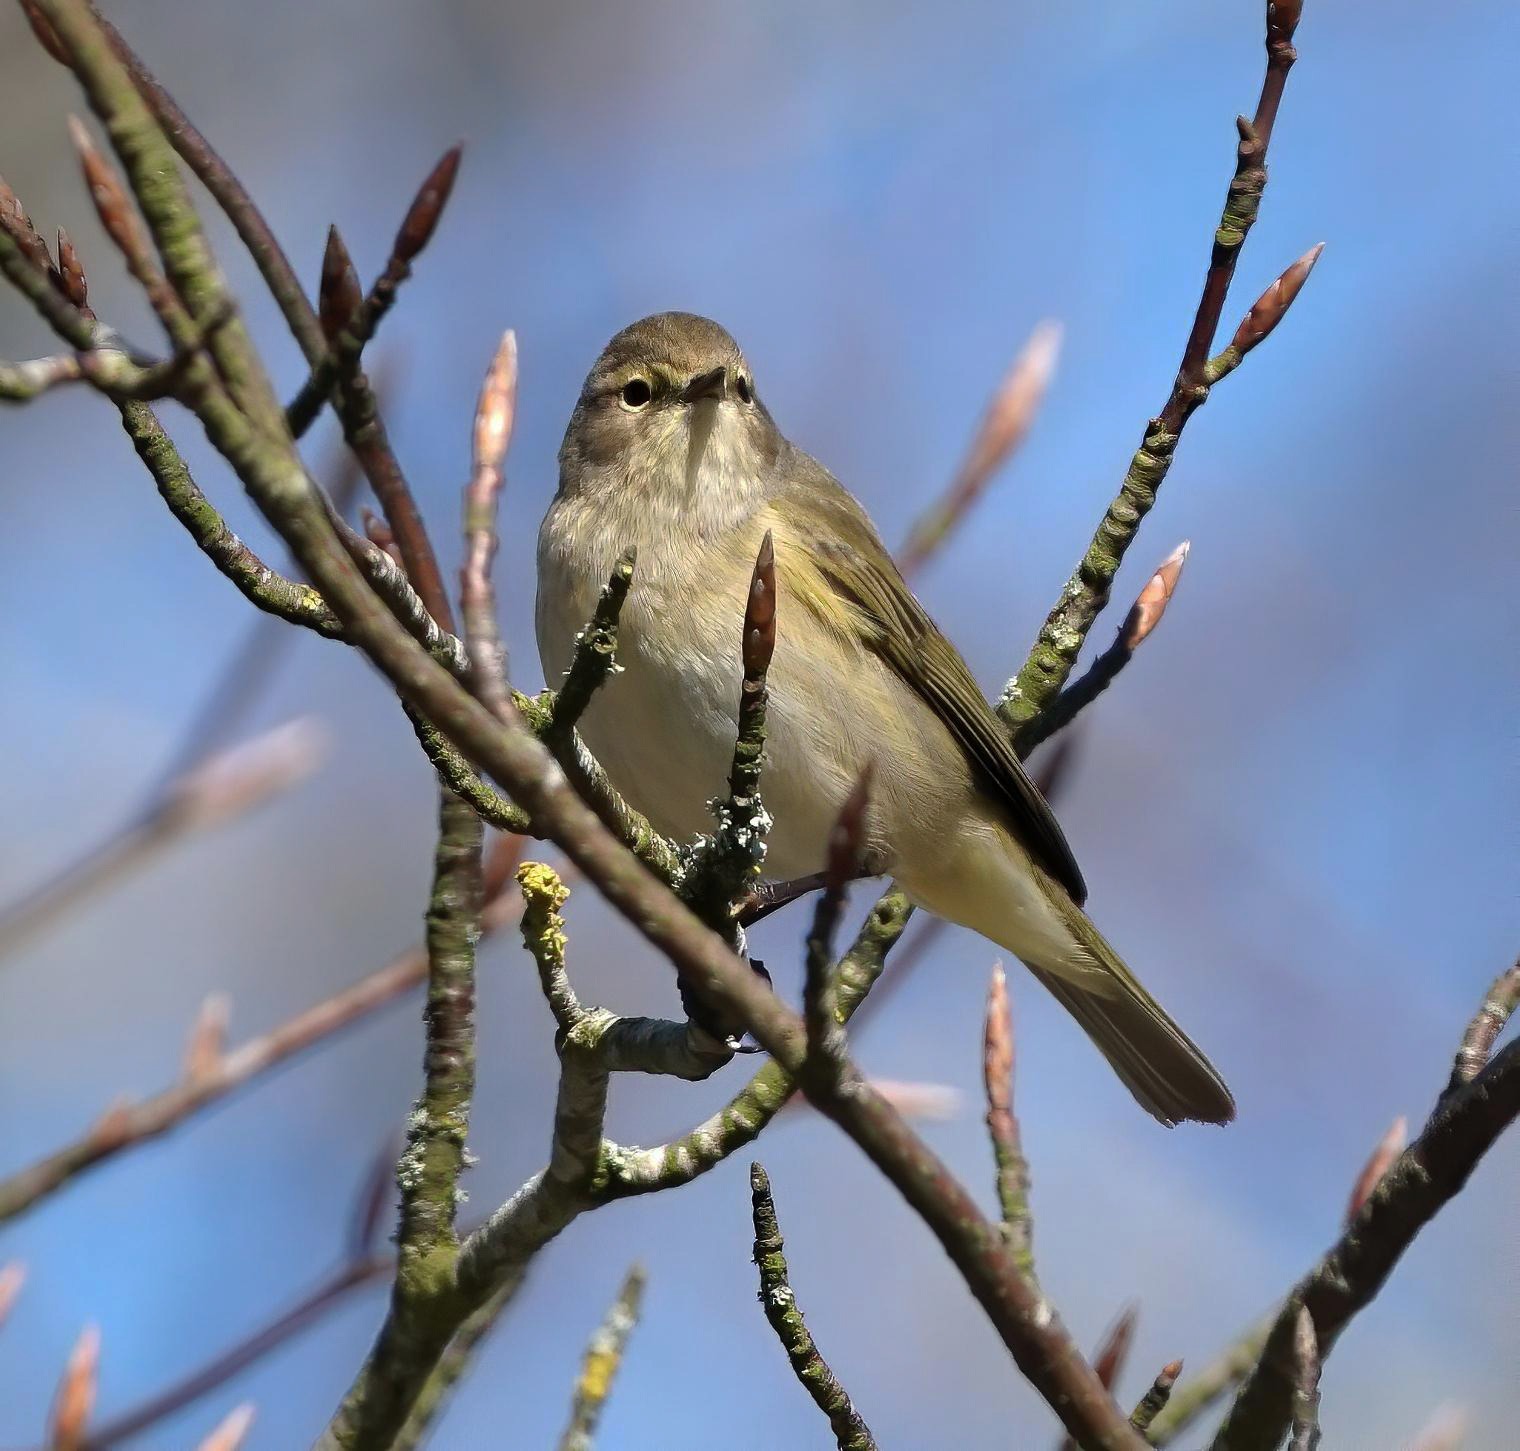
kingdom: Animalia
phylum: Chordata
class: Aves
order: Passeriformes
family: Phylloscopidae
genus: Phylloscopus
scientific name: Phylloscopus collybita
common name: Gransanger
